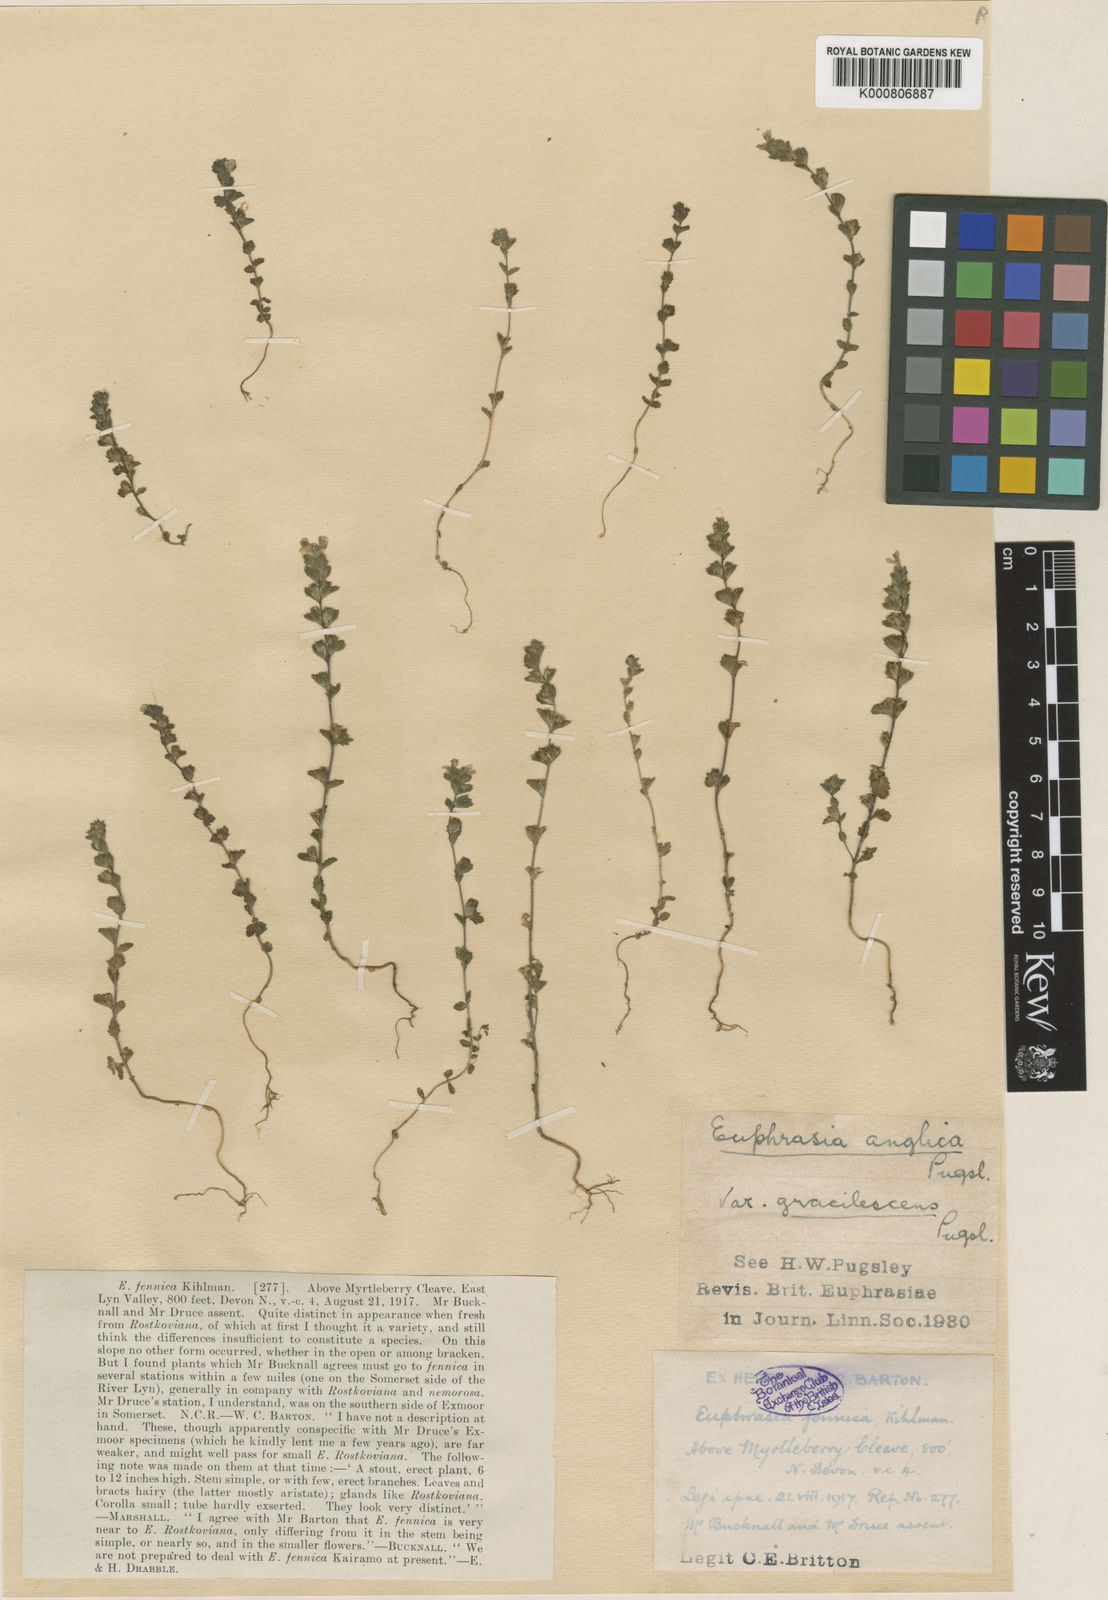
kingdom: Plantae
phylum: Tracheophyta
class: Magnoliopsida
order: Lamiales
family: Orobanchaceae
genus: Euphrasia
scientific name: Euphrasia officinalis
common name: Eyebright
